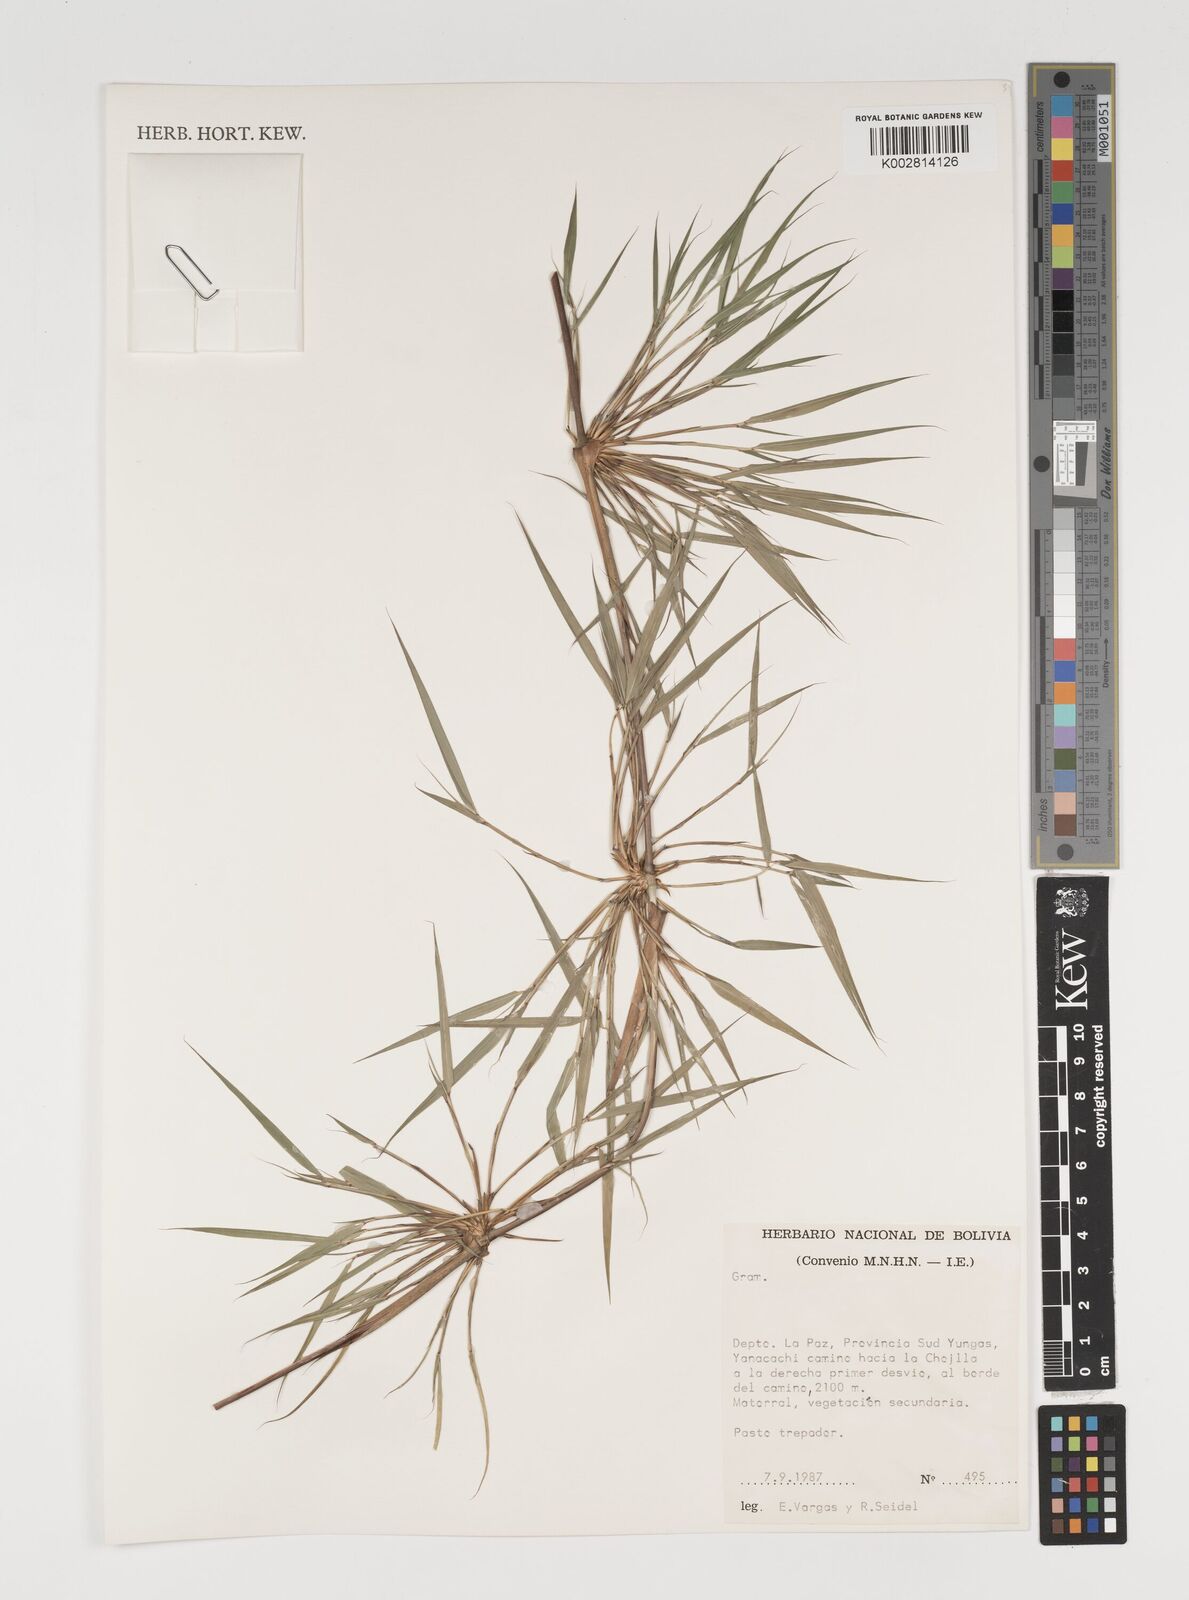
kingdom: Plantae
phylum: Tracheophyta
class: Liliopsida
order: Poales
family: Poaceae
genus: Chusquea
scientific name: Chusquea
